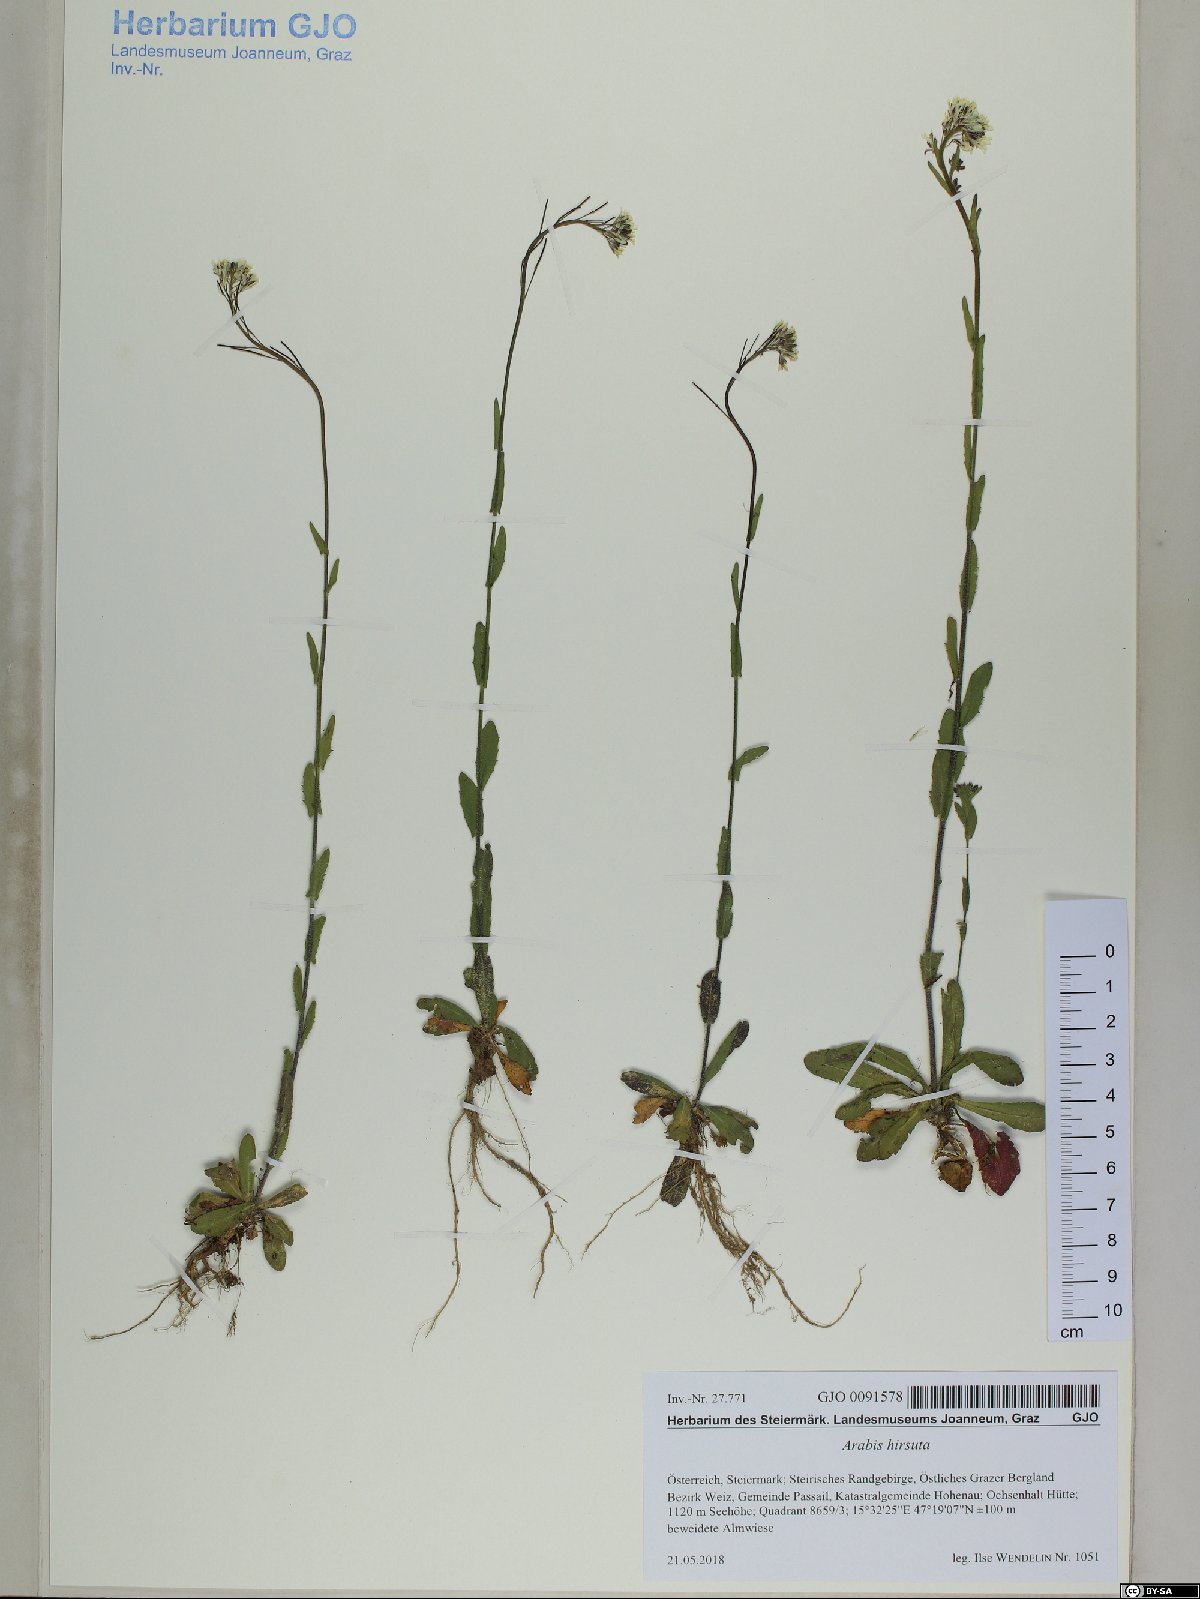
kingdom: Plantae
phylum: Tracheophyta
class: Magnoliopsida
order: Brassicales
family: Brassicaceae
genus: Arabis
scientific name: Arabis hirsuta
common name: Hairy rock-cress
